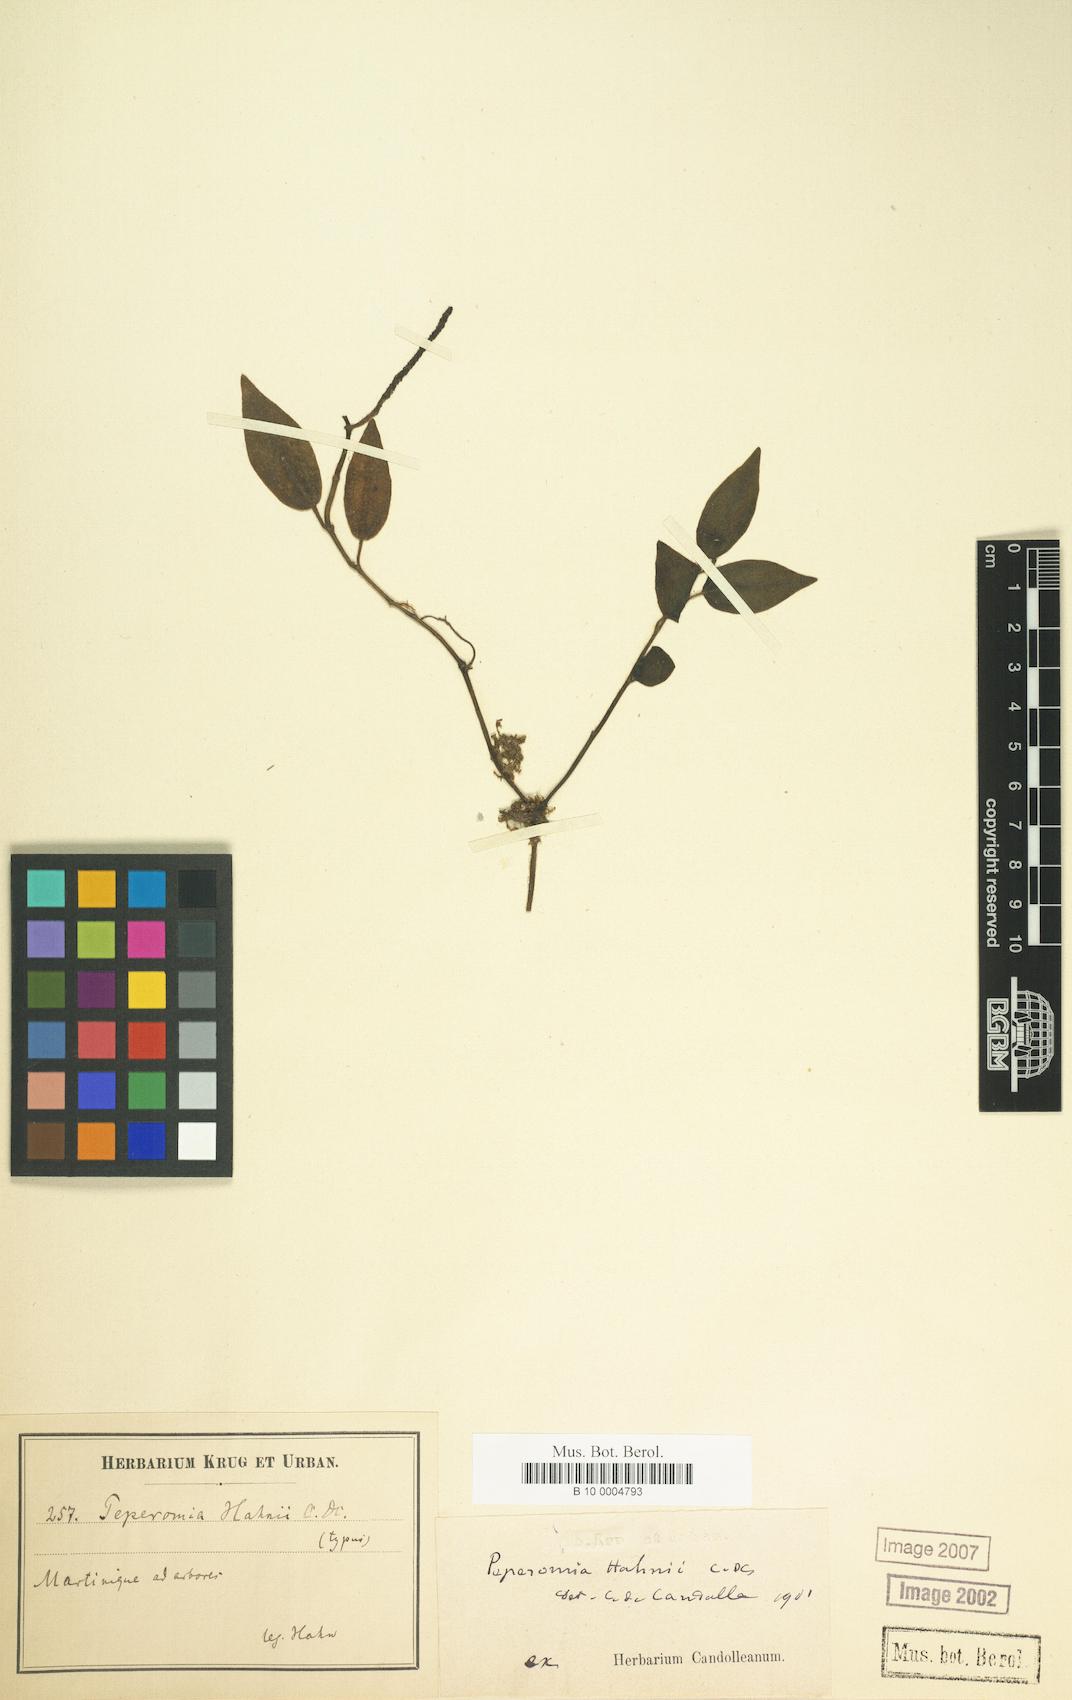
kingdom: Plantae
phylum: Tracheophyta
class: Magnoliopsida
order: Piperales
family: Piperaceae
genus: Peperomia
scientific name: Peperomia hirtella
